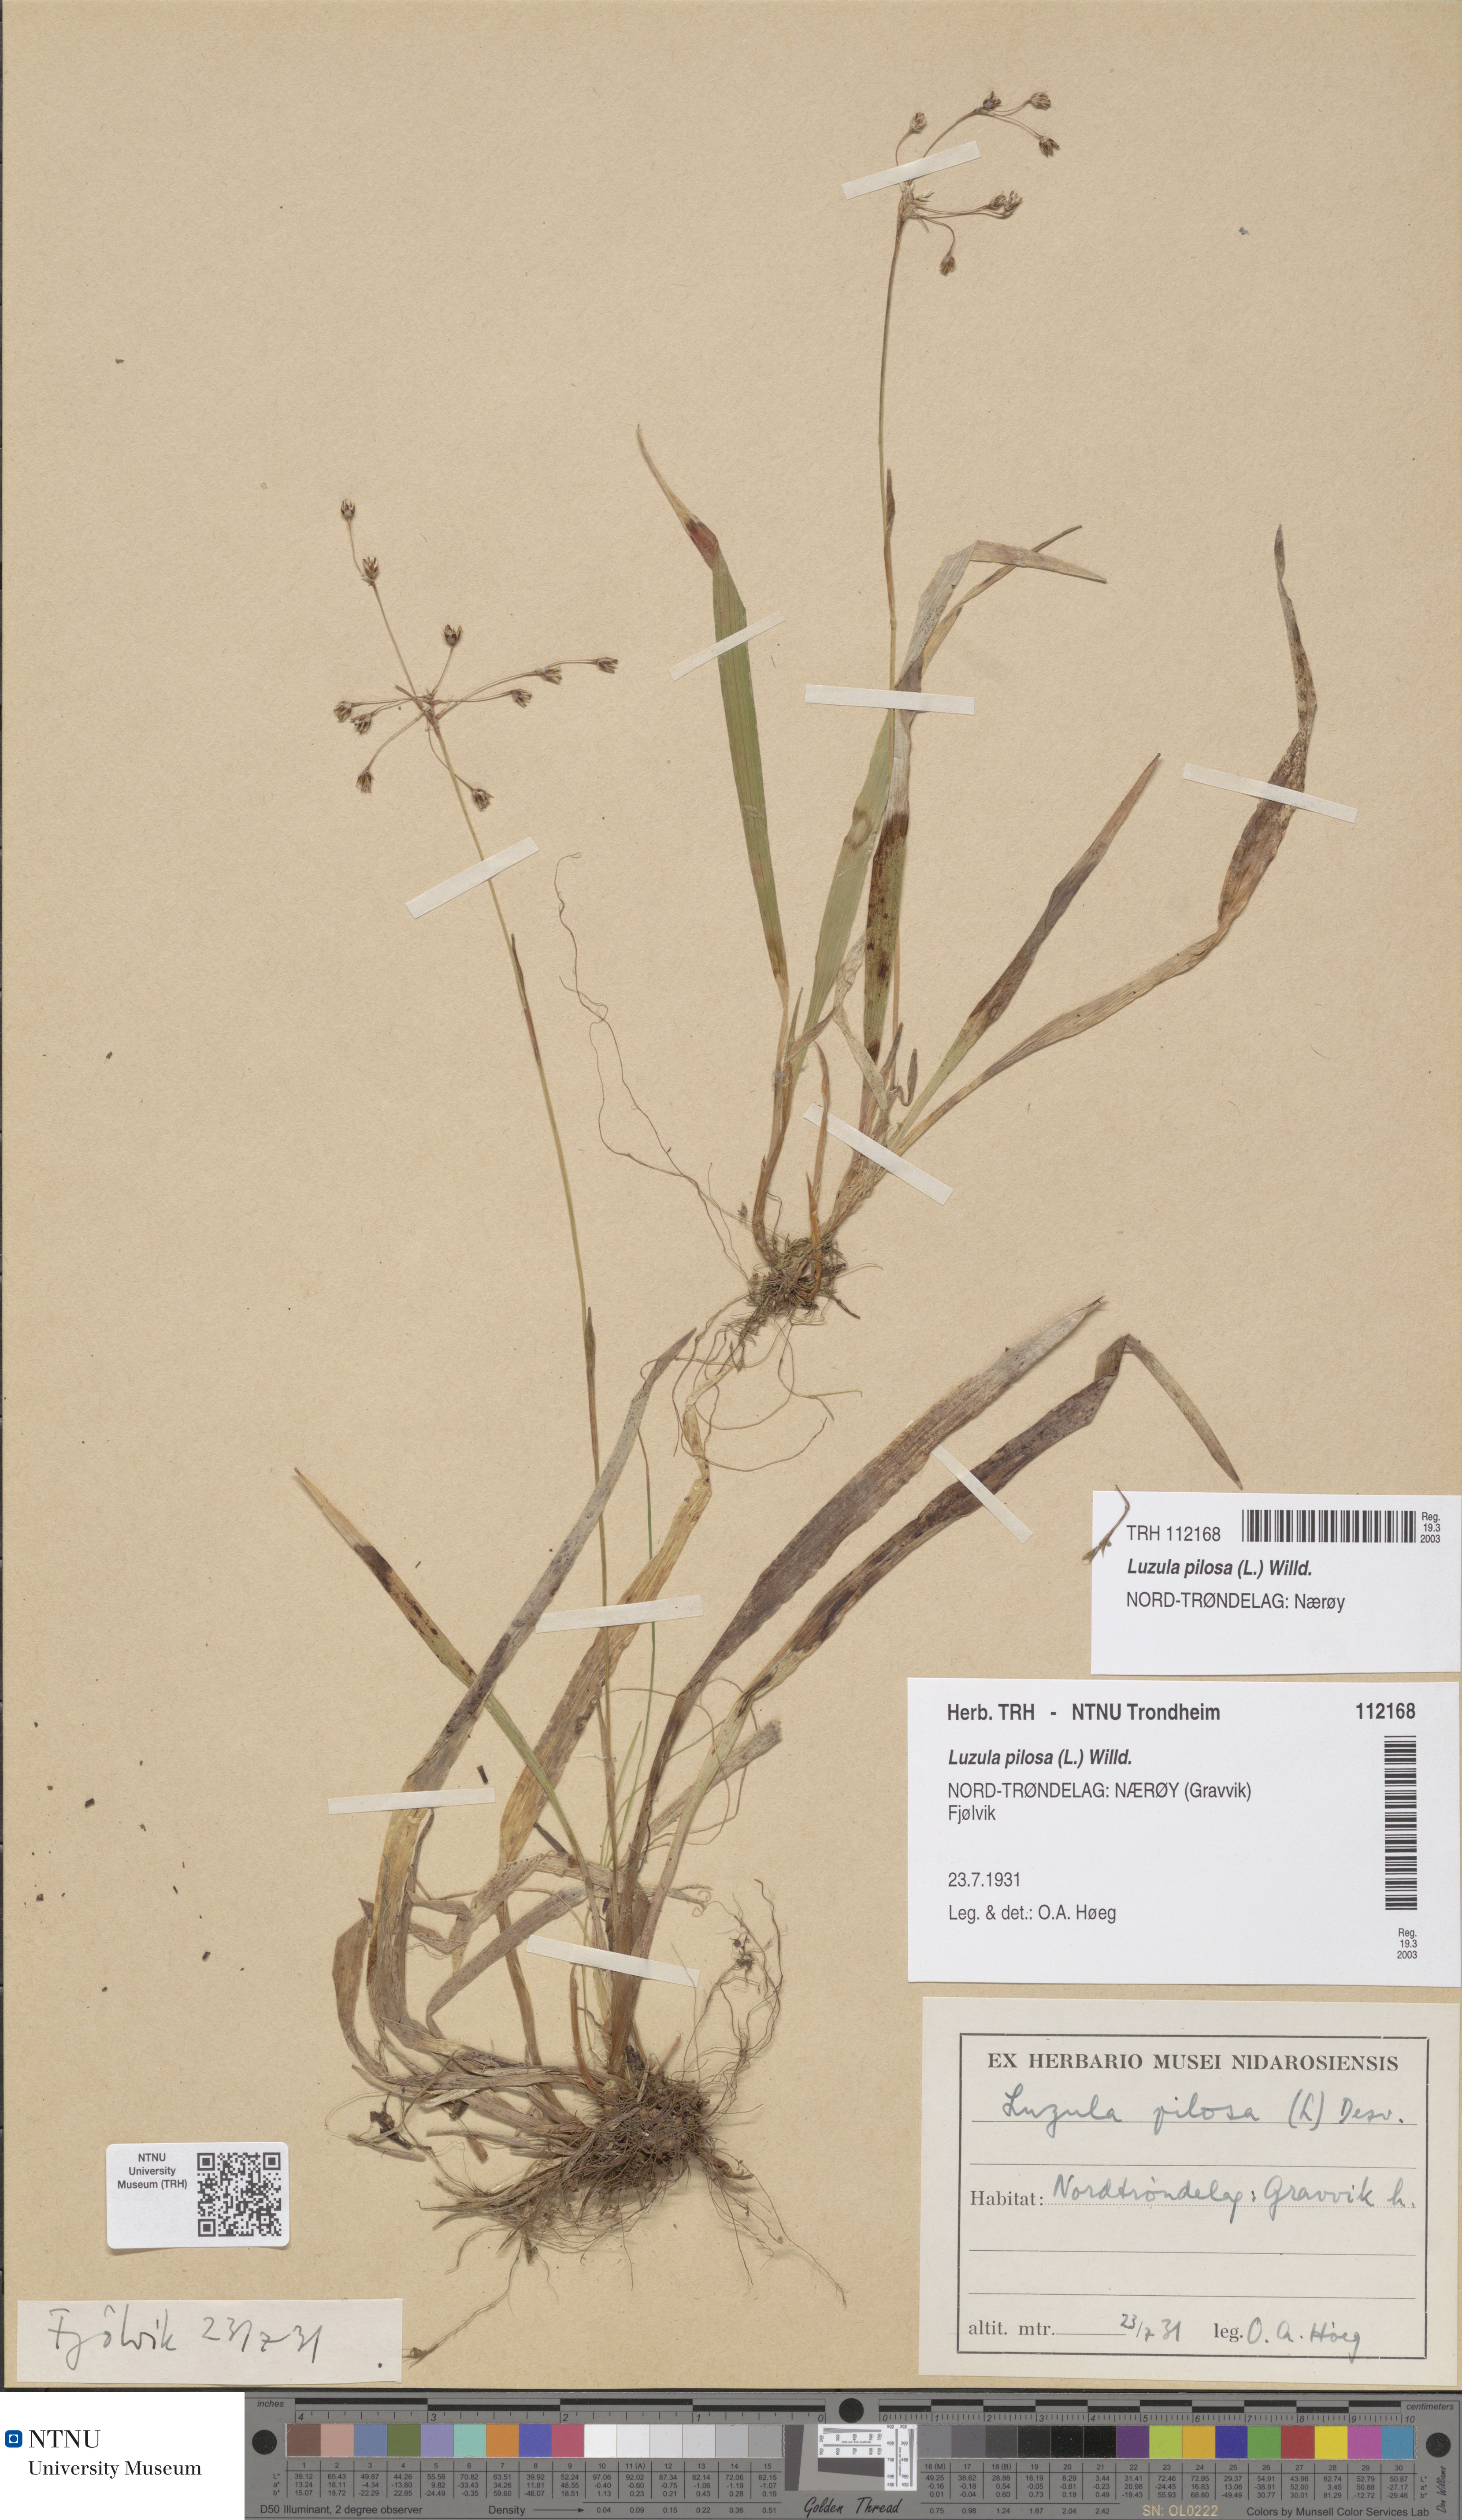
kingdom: Plantae
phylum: Tracheophyta
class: Liliopsida
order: Poales
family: Juncaceae
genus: Luzula
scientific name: Luzula pilosa
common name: Hairy wood-rush
